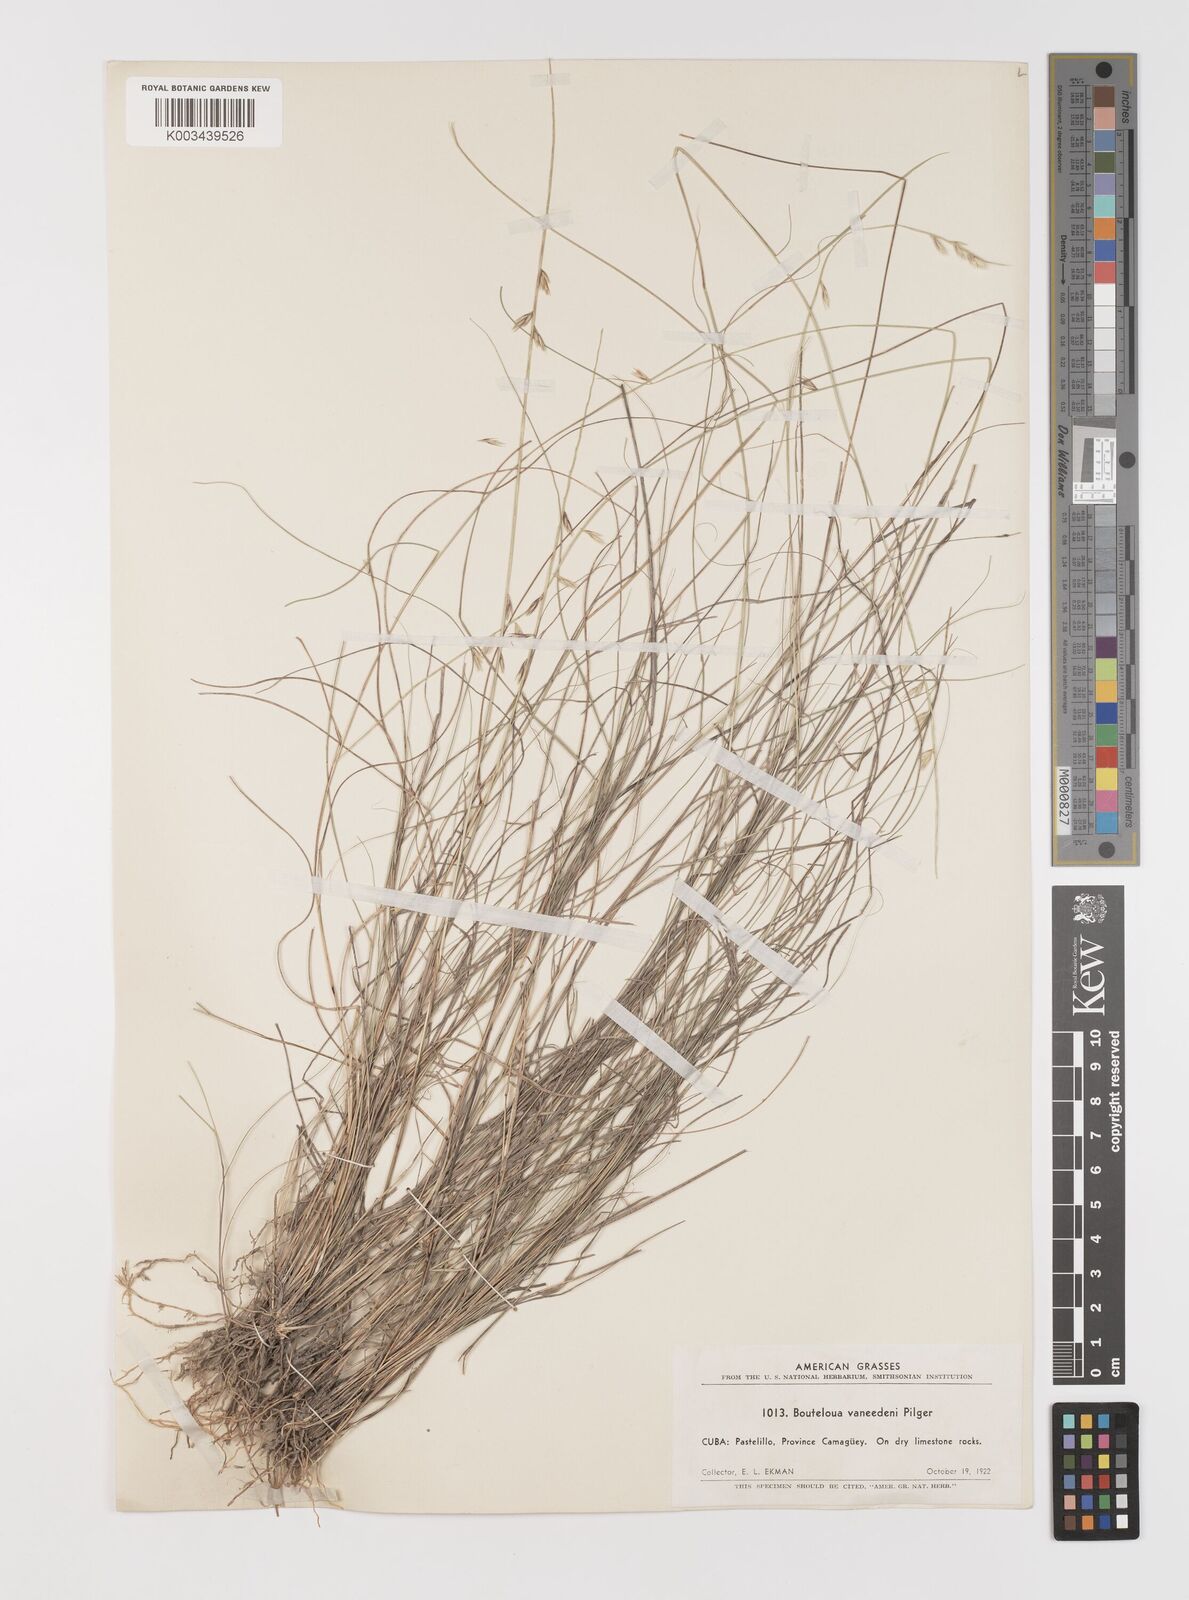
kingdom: Plantae
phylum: Tracheophyta
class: Liliopsida
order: Poales
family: Poaceae
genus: Bouteloua
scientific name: Bouteloua vaneedenii
